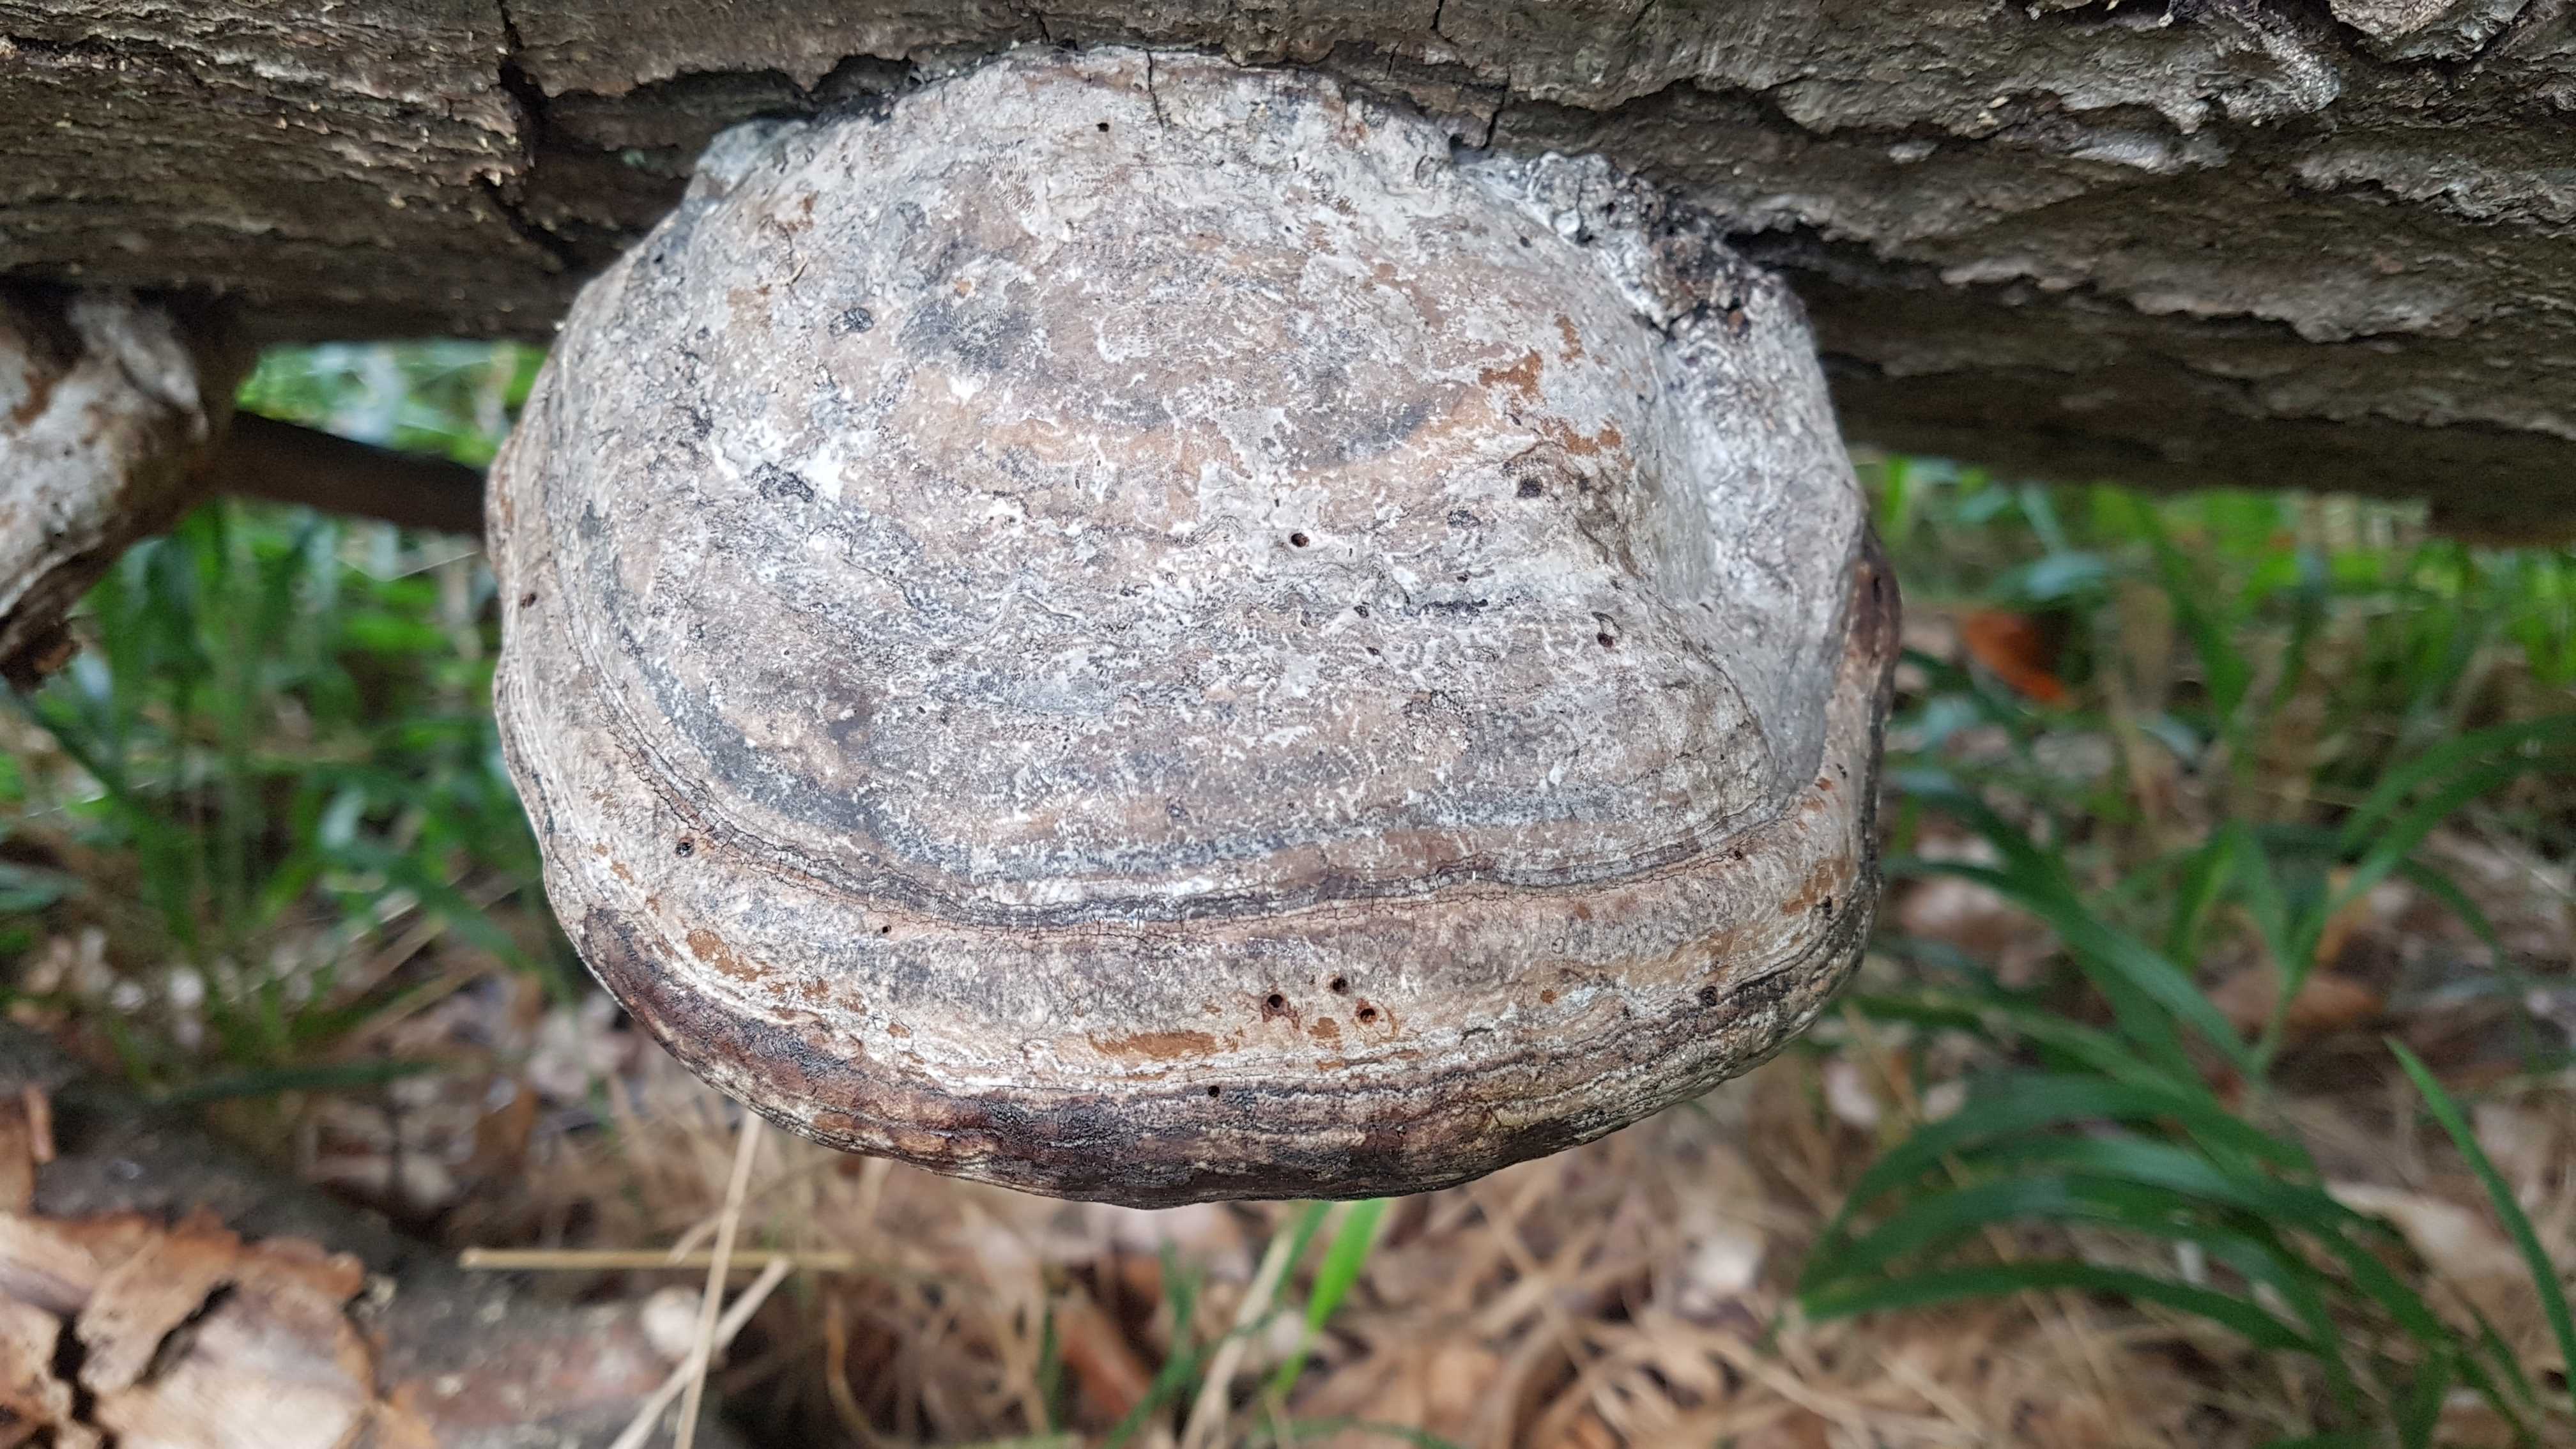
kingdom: Fungi
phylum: Basidiomycota
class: Agaricomycetes
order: Polyporales
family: Polyporaceae
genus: Fomes
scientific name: Fomes fomentarius
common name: tøndersvamp
